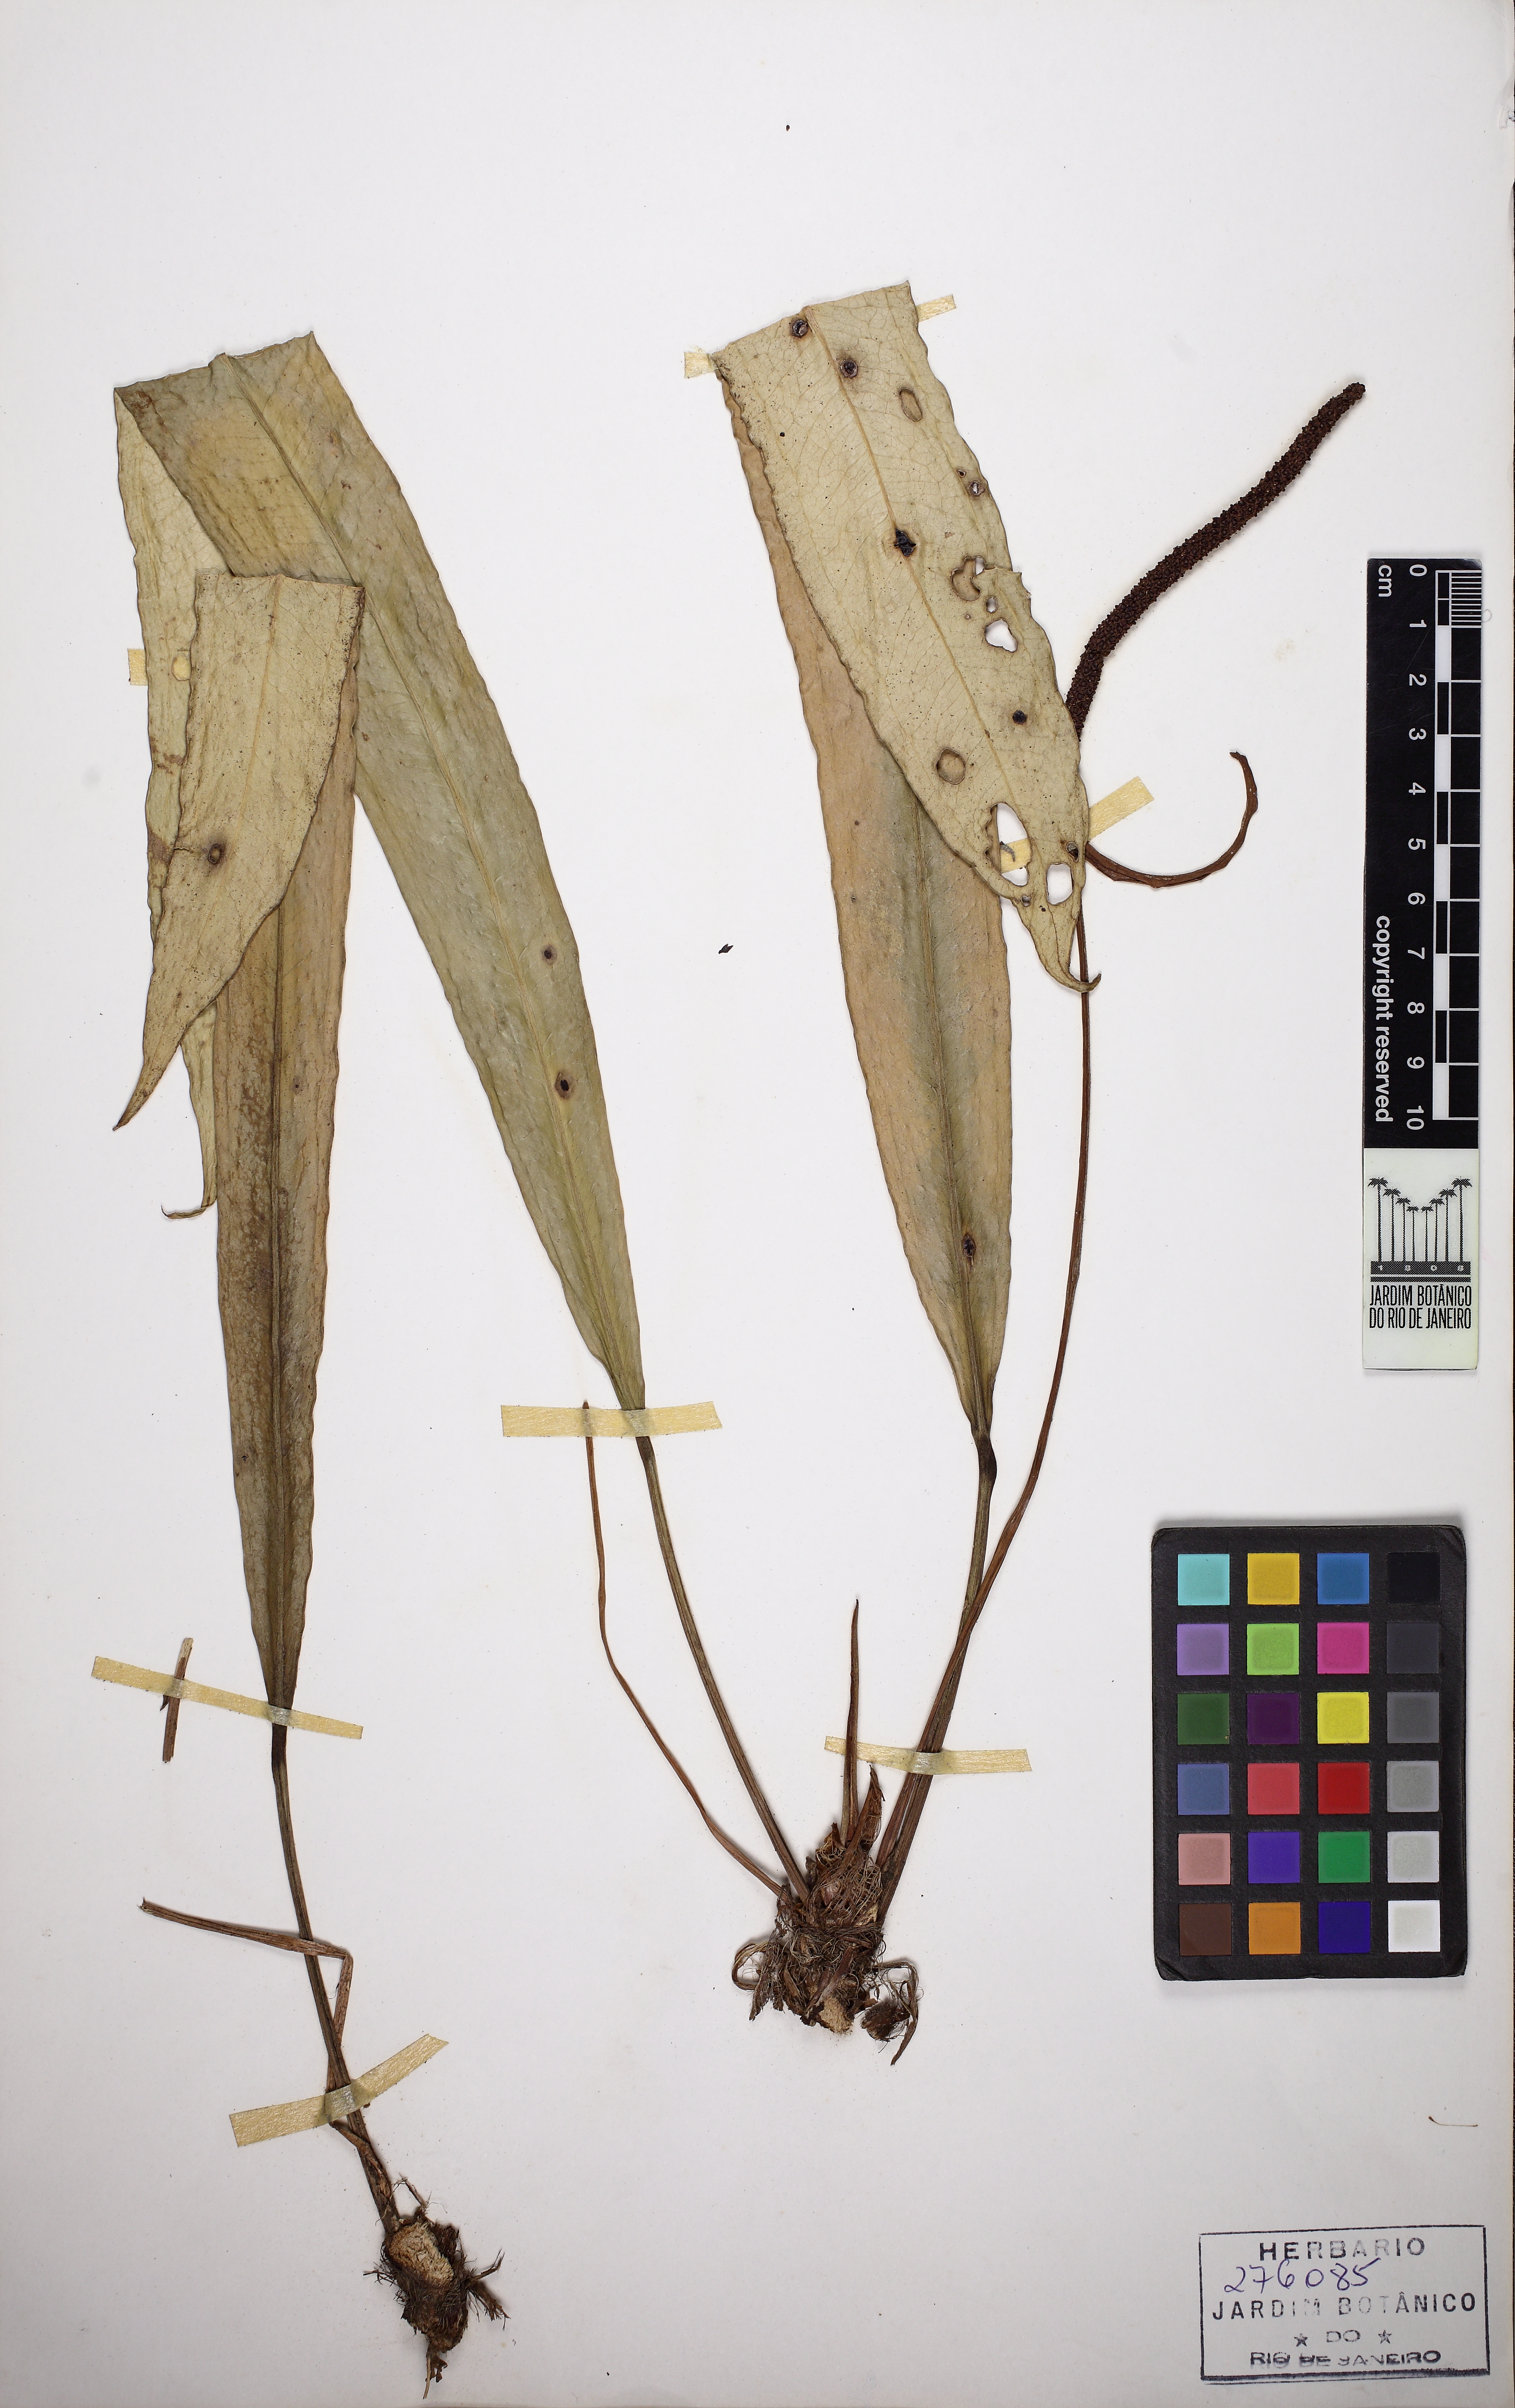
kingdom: Plantae
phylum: Tracheophyta
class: Liliopsida
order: Alismatales
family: Araceae
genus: Anthurium
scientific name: Anthurium longifolium
